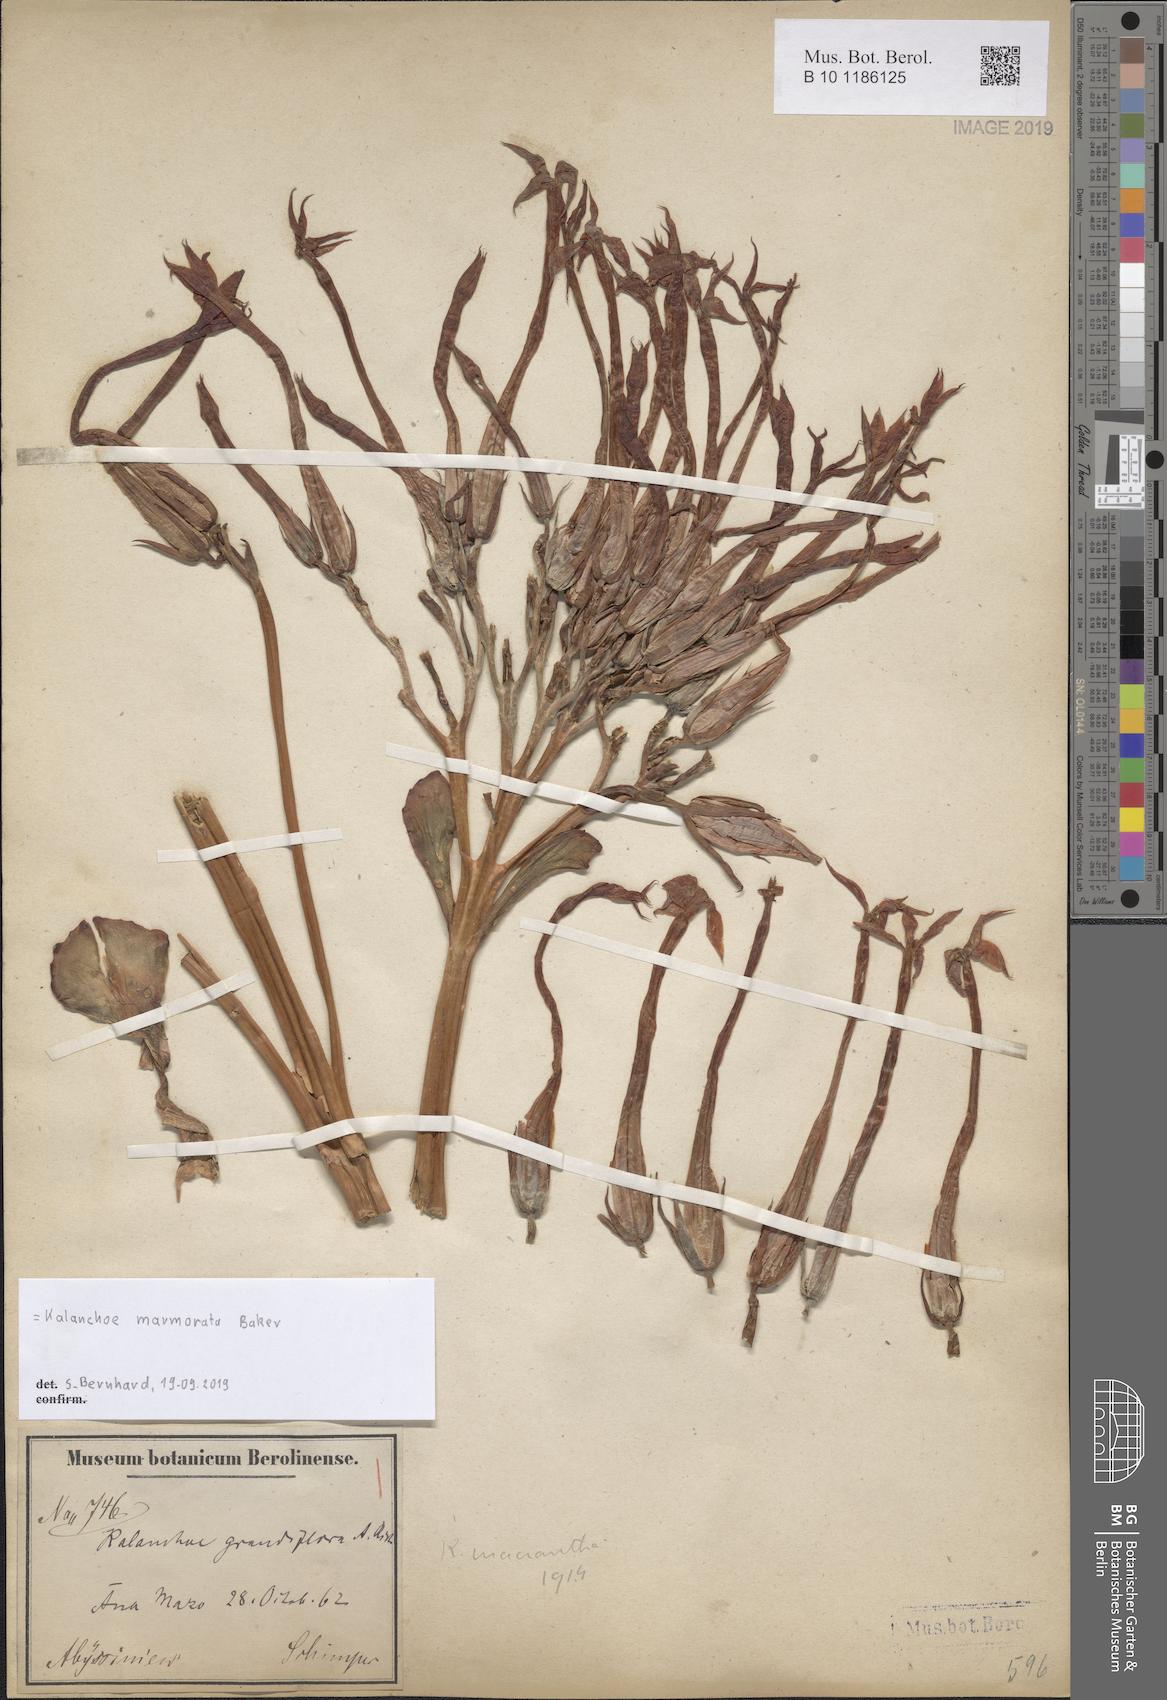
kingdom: Plantae
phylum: Tracheophyta
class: Magnoliopsida
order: Saxifragales
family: Crassulaceae
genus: Kalanchoe
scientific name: Kalanchoe marmorata
